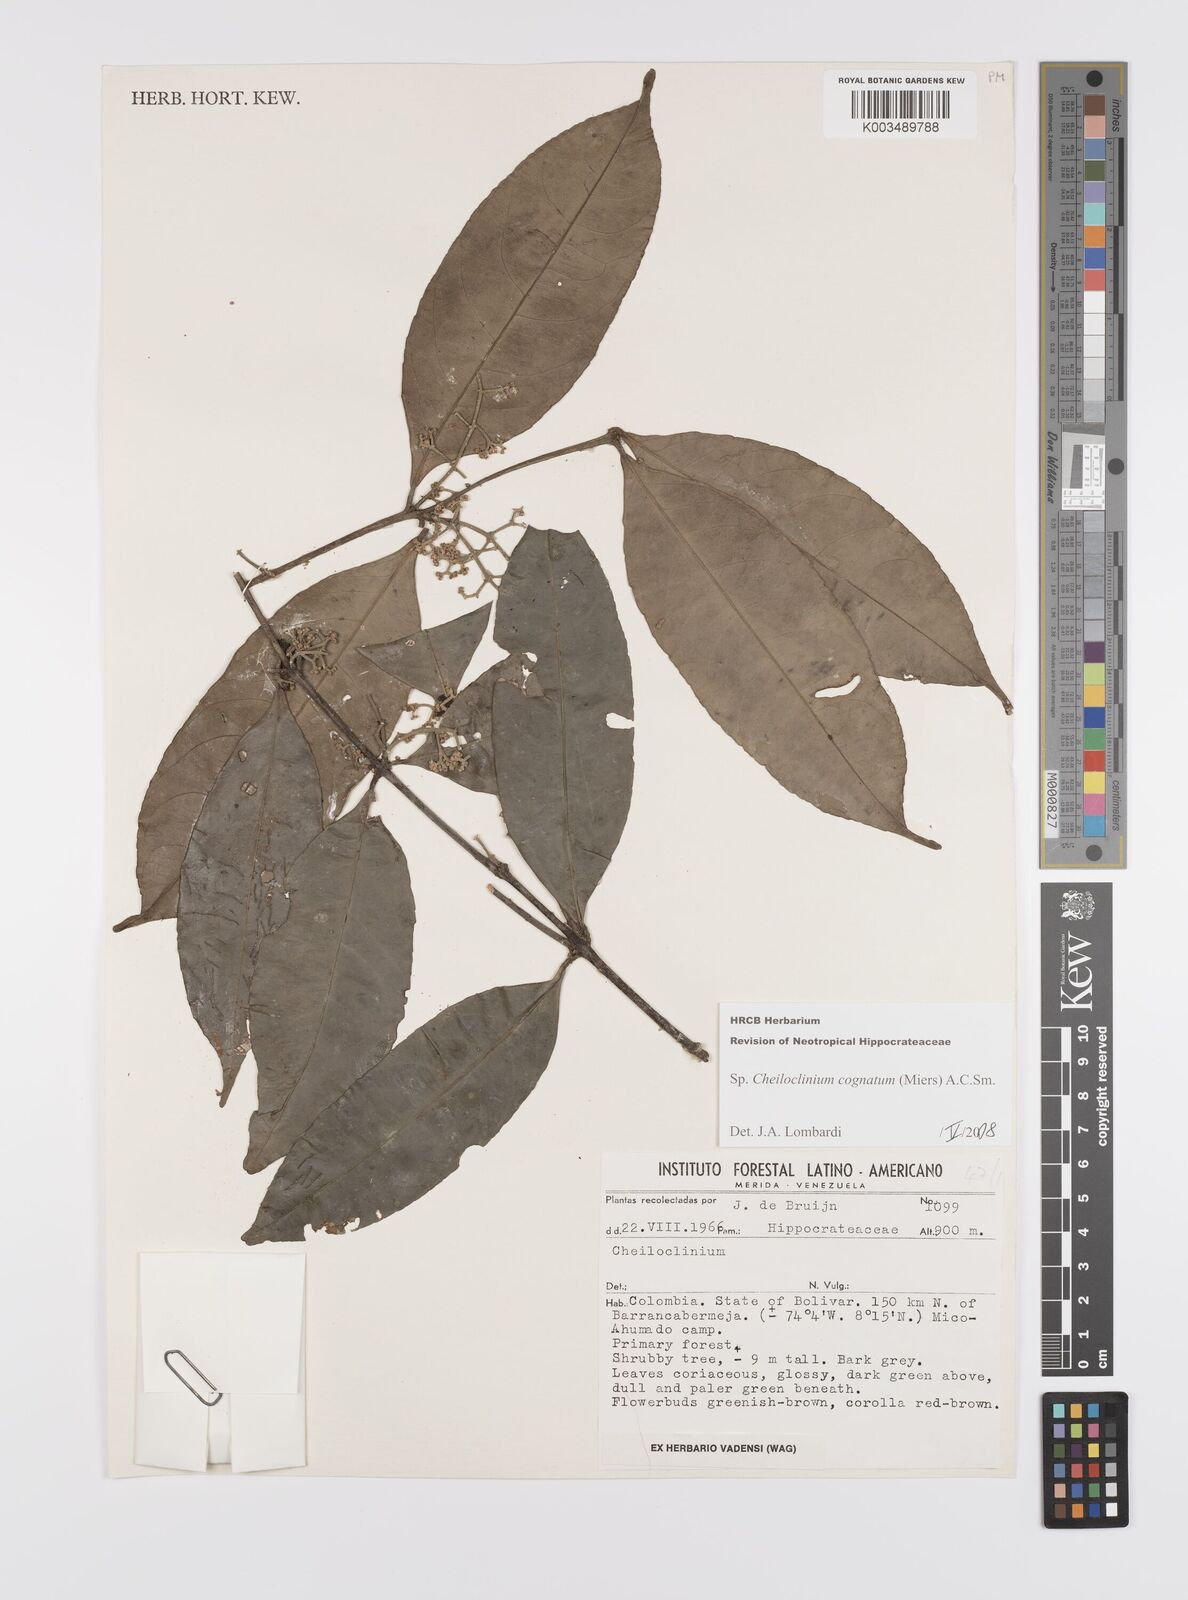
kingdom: Plantae
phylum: Tracheophyta
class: Magnoliopsida
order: Celastrales
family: Celastraceae
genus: Cheiloclinium
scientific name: Cheiloclinium cognatum
